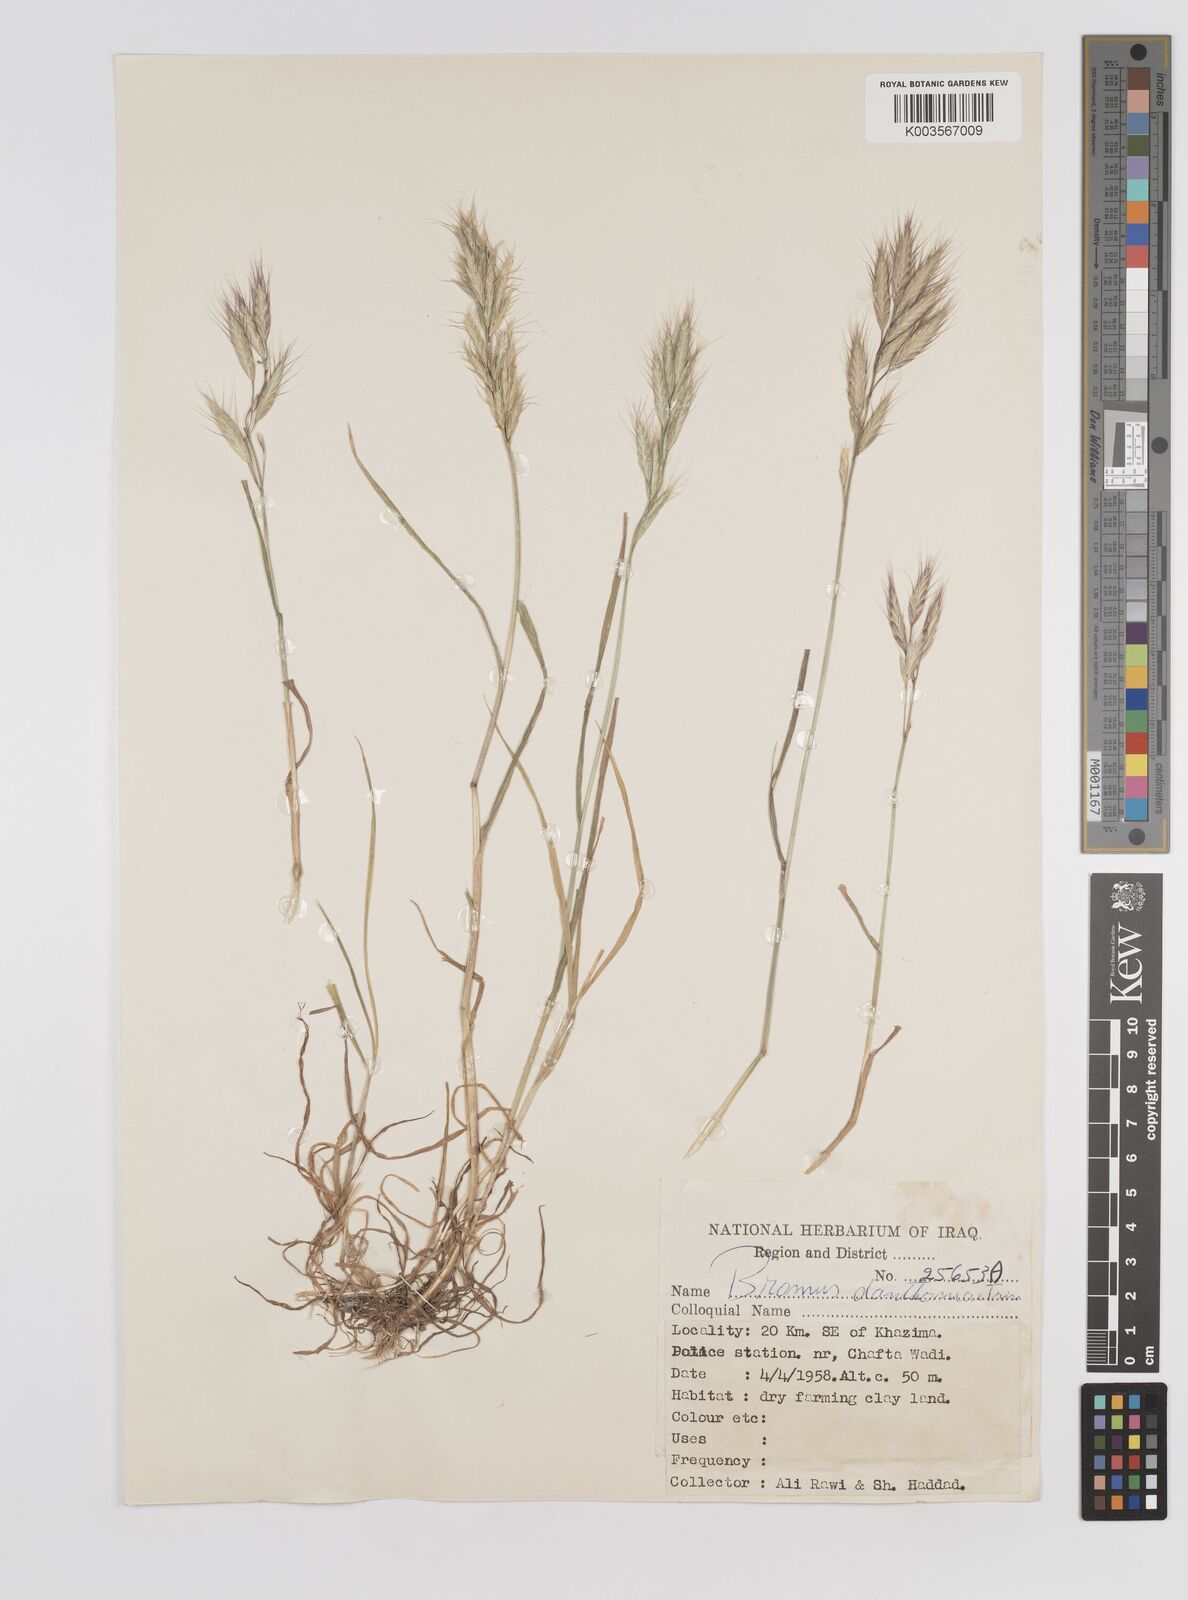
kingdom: Plantae
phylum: Tracheophyta
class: Liliopsida
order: Poales
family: Poaceae
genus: Bromus
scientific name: Bromus danthoniae
